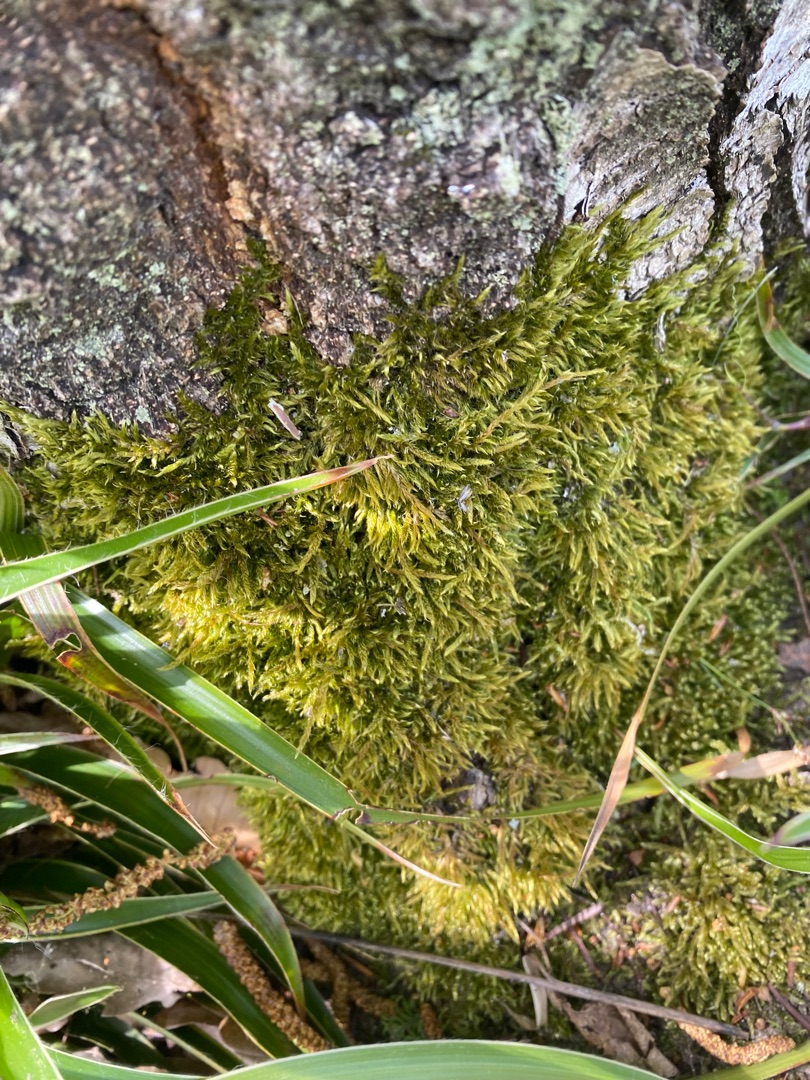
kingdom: Plantae
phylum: Bryophyta
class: Bryopsida
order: Hypnales
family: Hypnaceae
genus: Hypnum
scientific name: Hypnum cupressiforme
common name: Almindelig cypresmos
